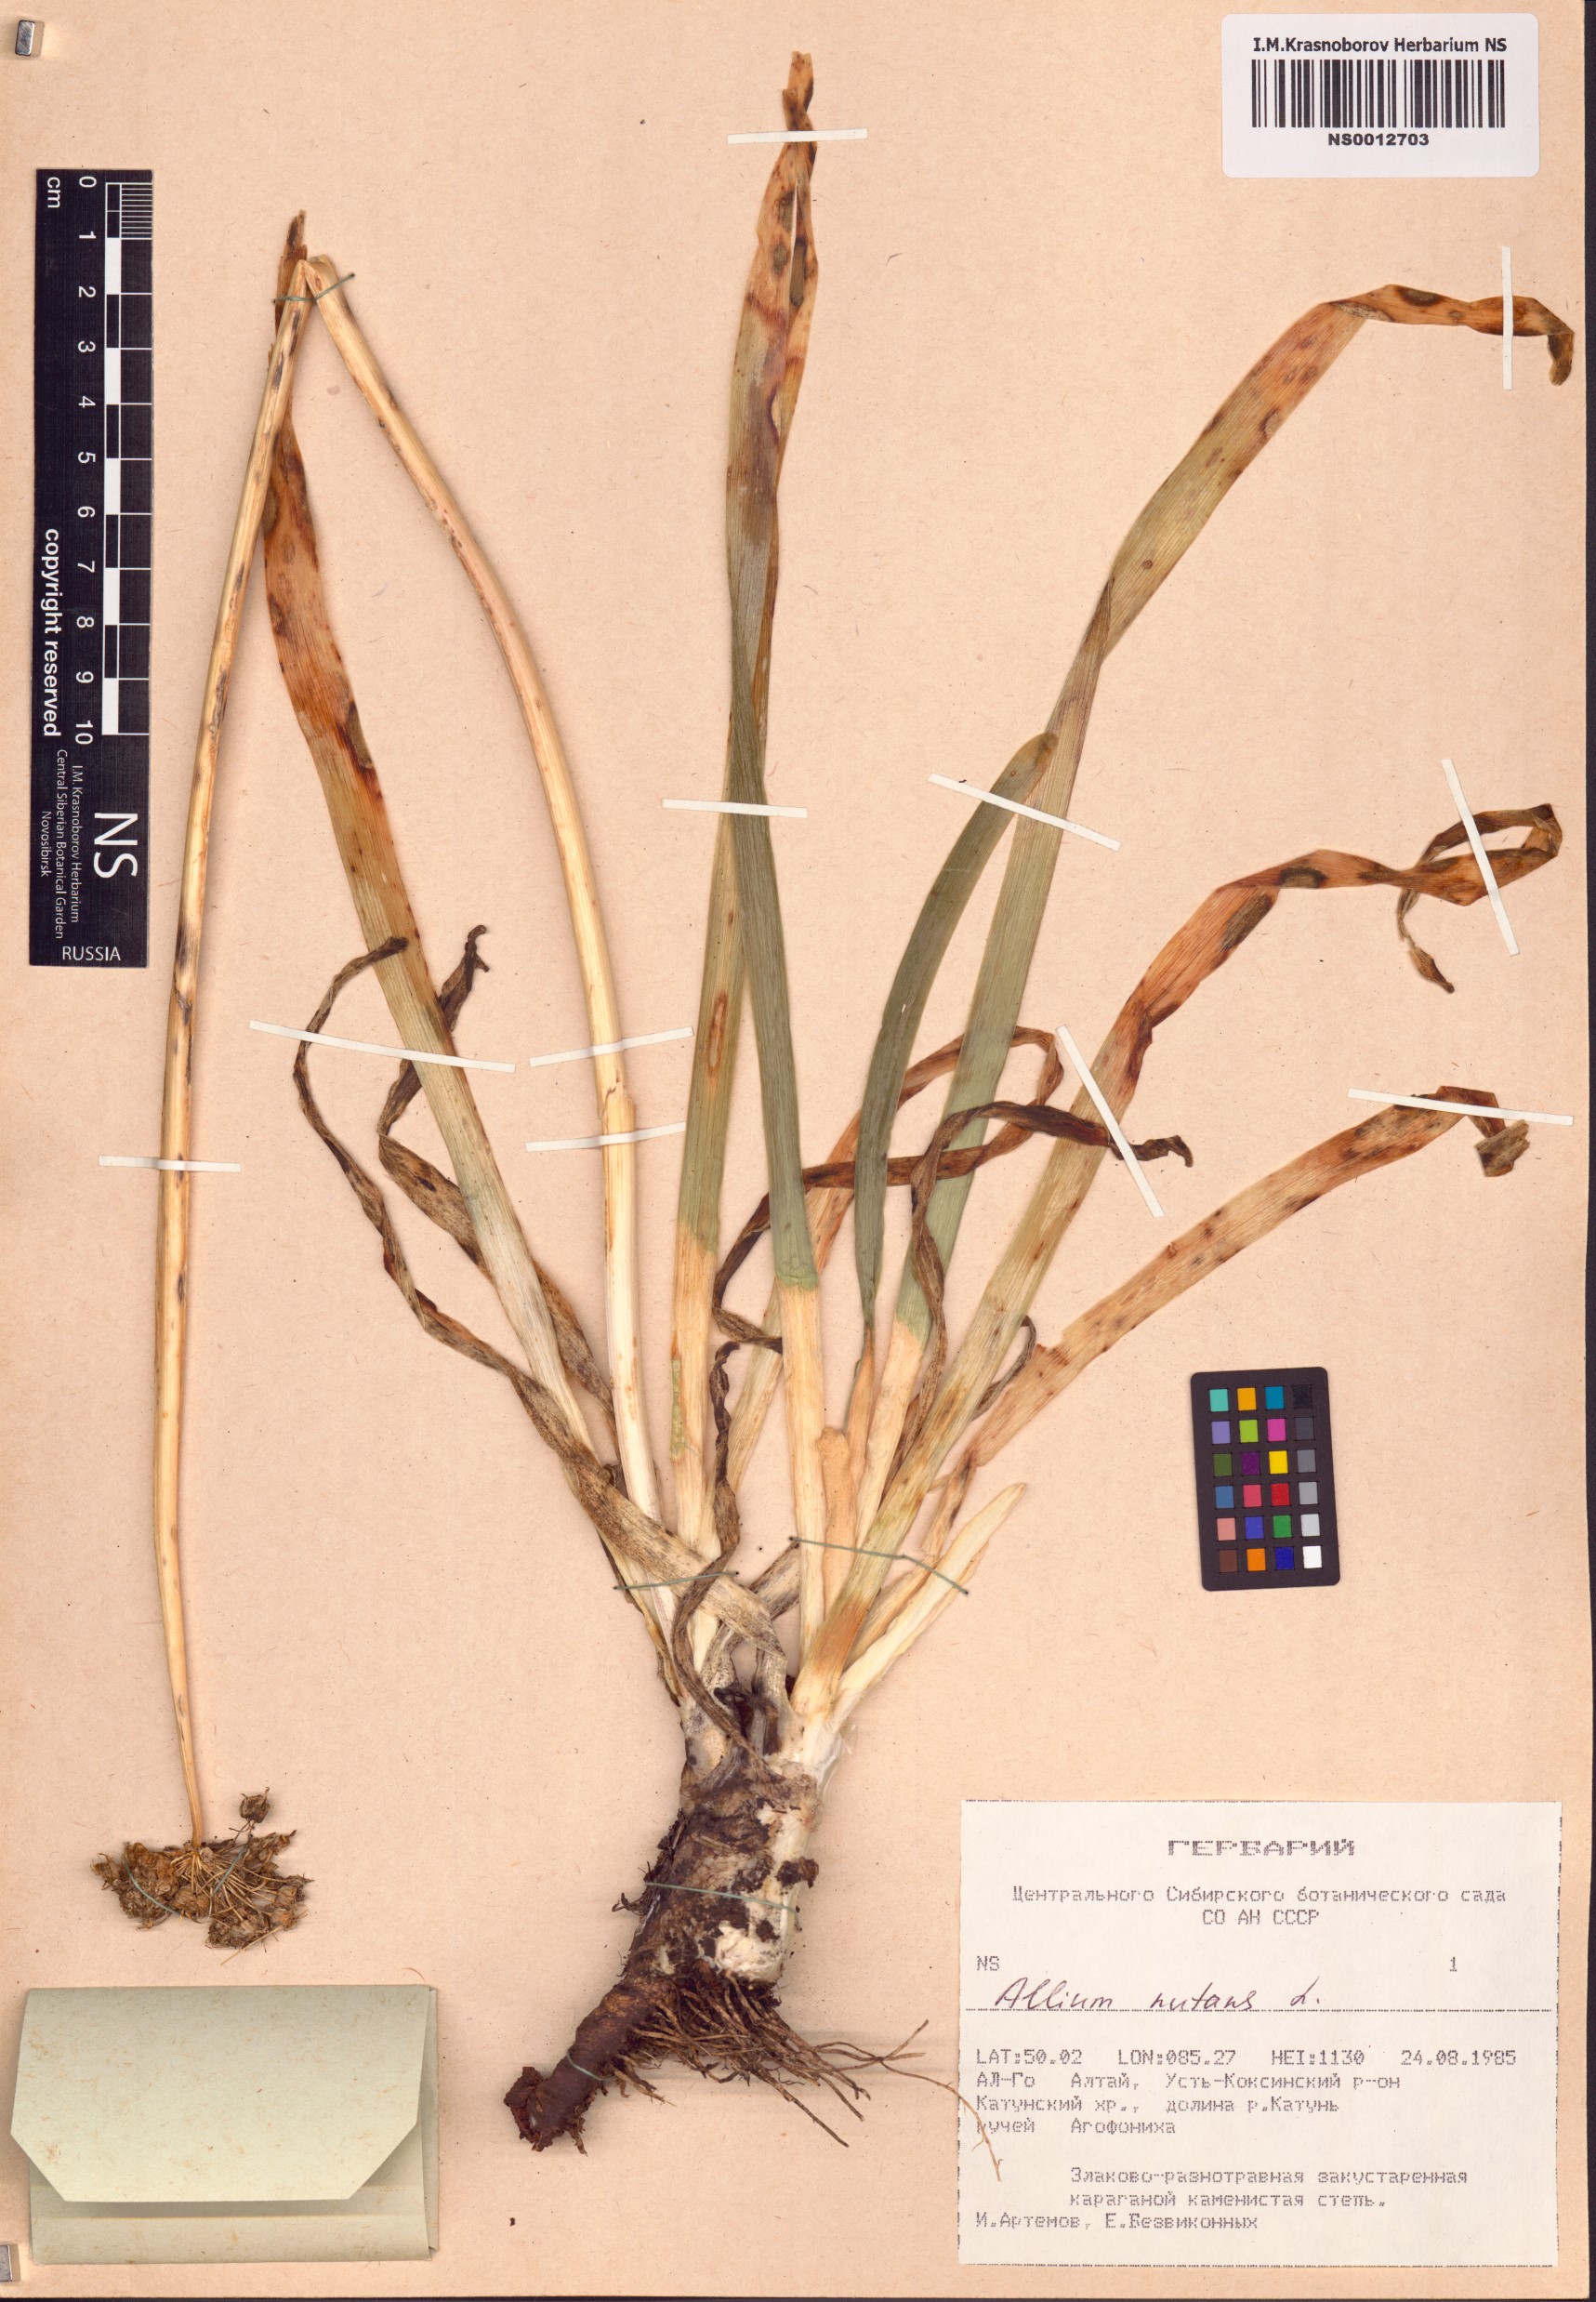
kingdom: Plantae
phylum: Tracheophyta
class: Liliopsida
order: Asparagales
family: Amaryllidaceae
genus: Allium
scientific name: Allium nutans
